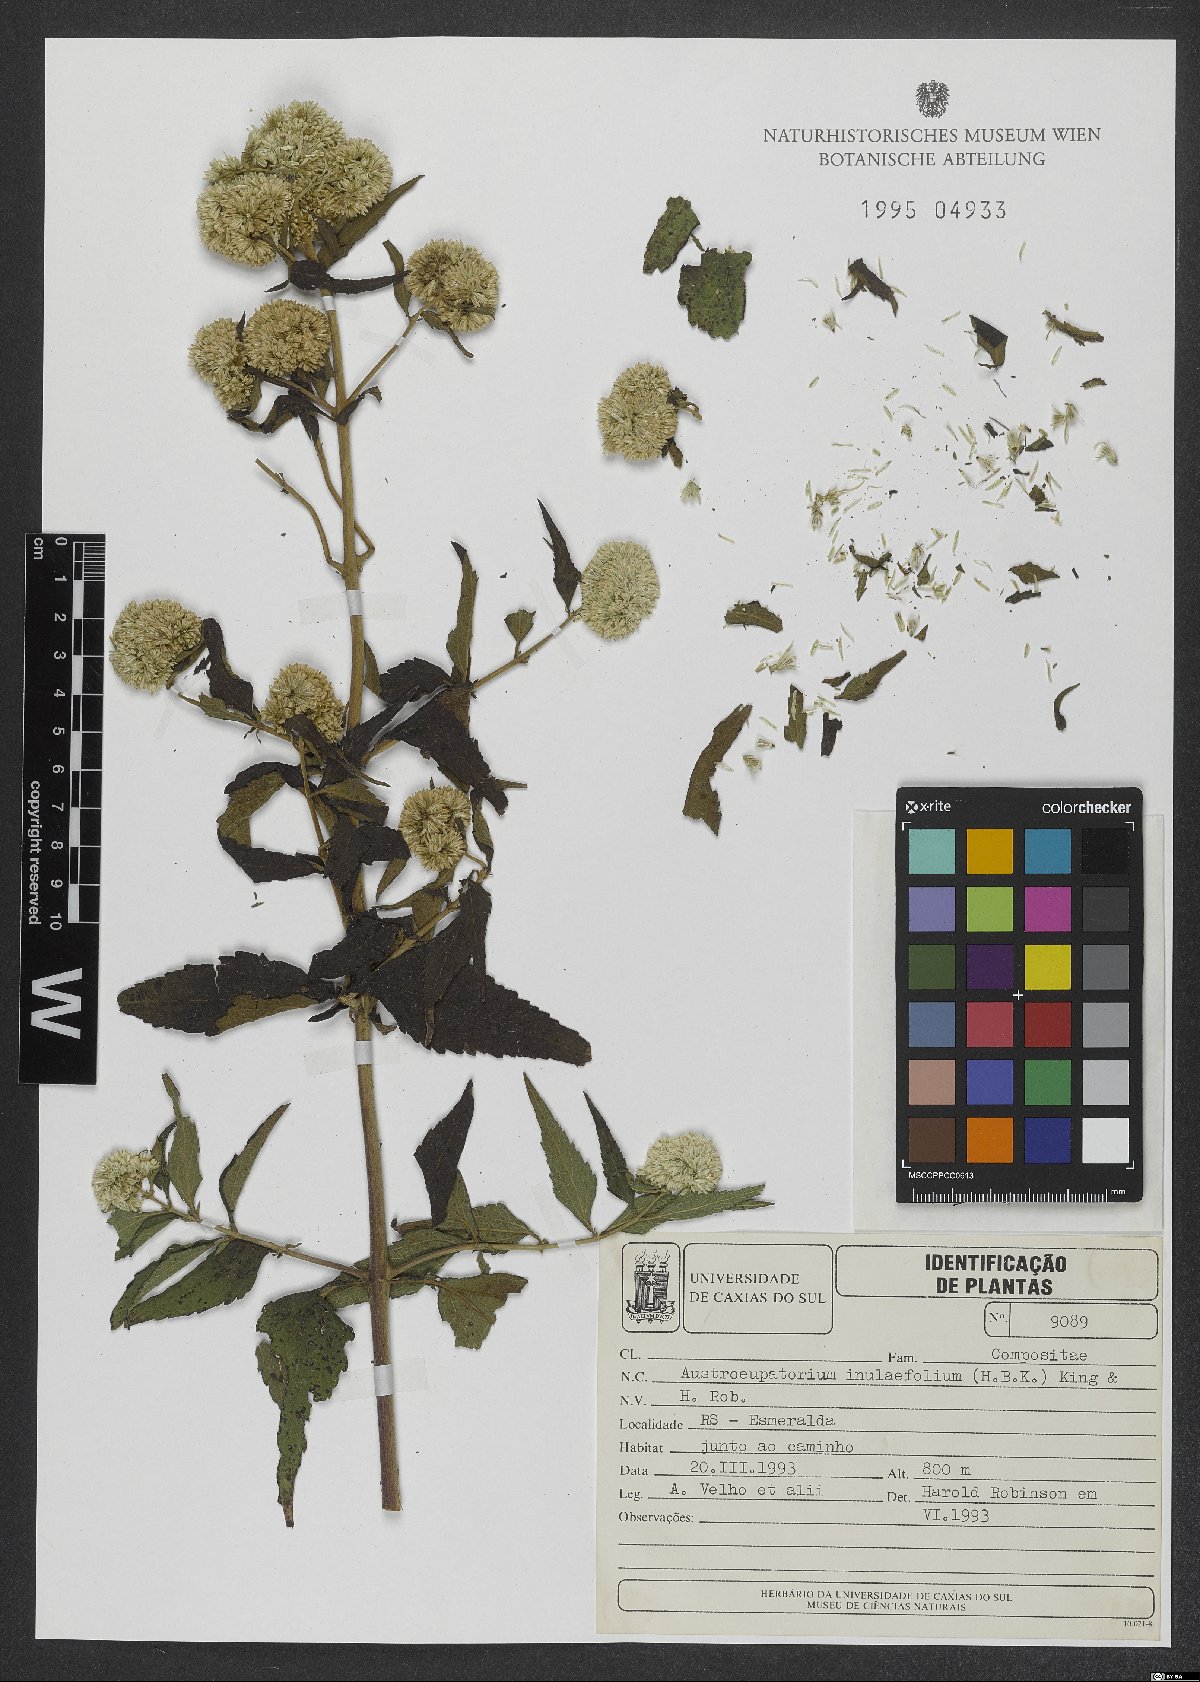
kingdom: Plantae
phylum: Tracheophyta
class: Magnoliopsida
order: Asterales
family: Asteraceae
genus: Austroeupatorium
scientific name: Austroeupatorium inulifolium
